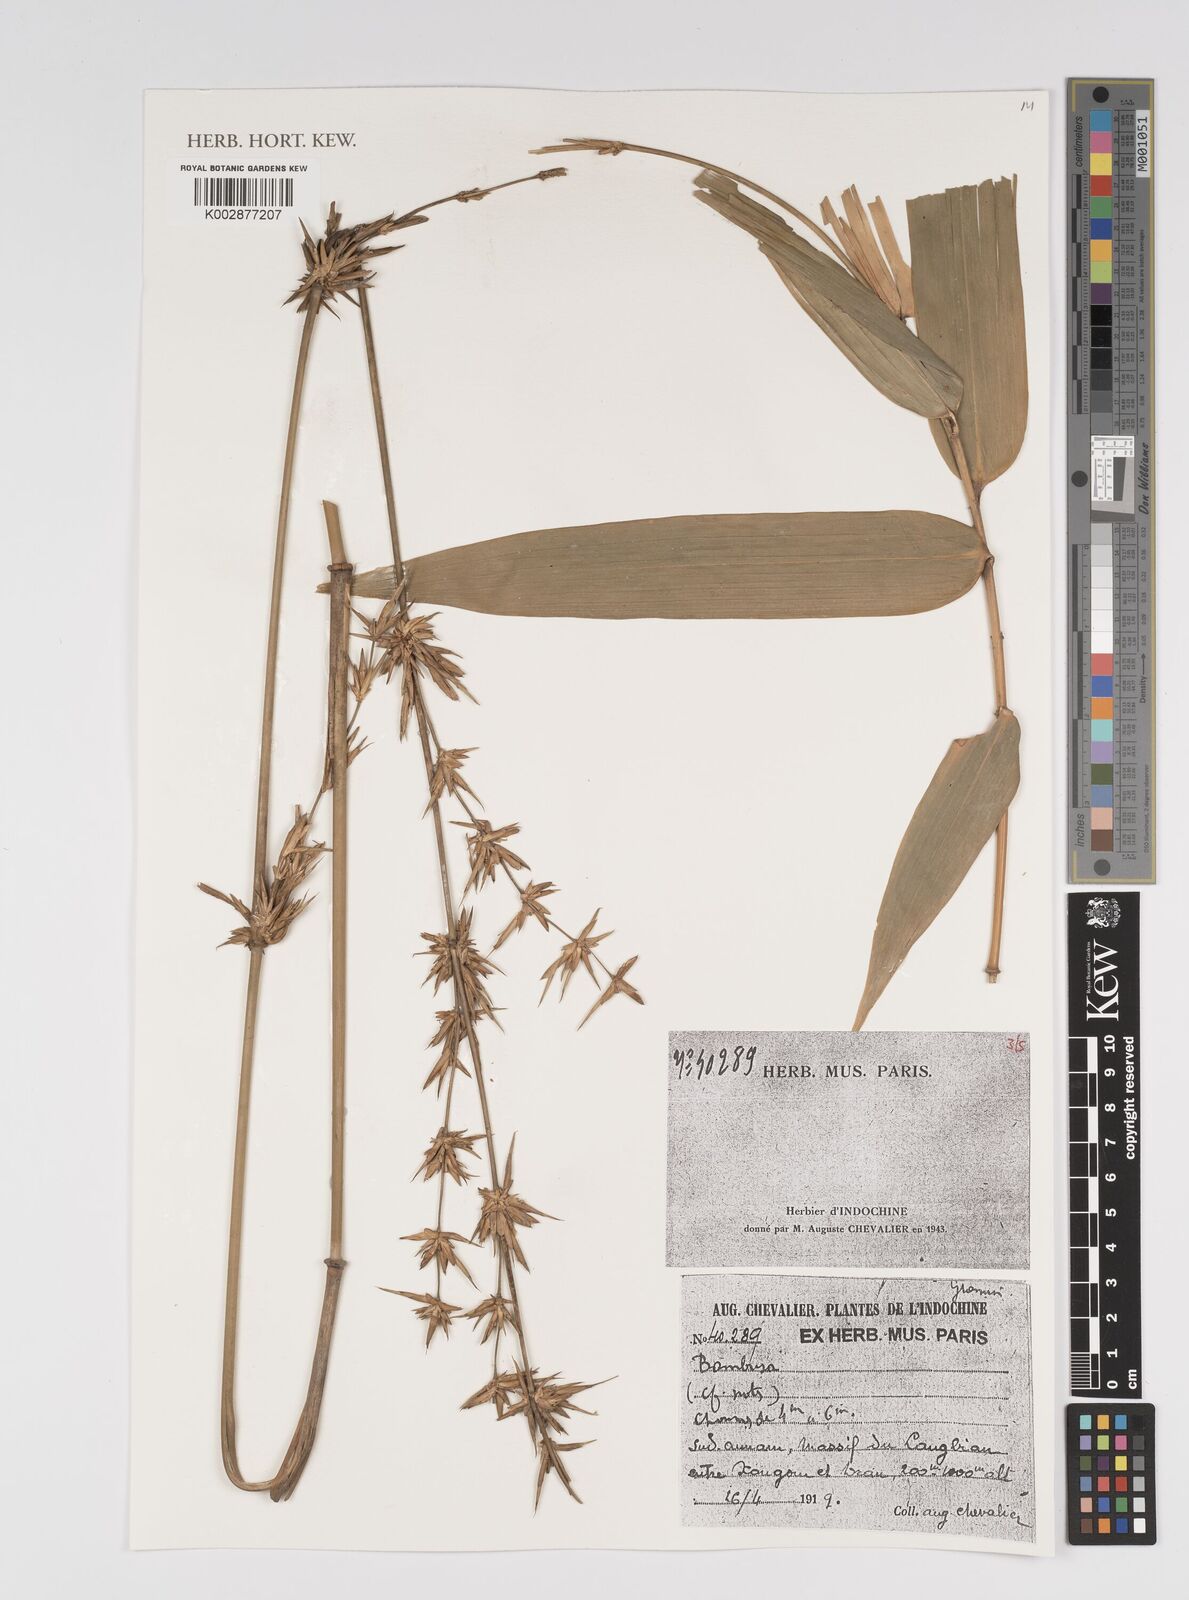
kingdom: Plantae
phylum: Tracheophyta
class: Liliopsida
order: Poales
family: Poaceae
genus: Bambusa
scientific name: Bambusa
